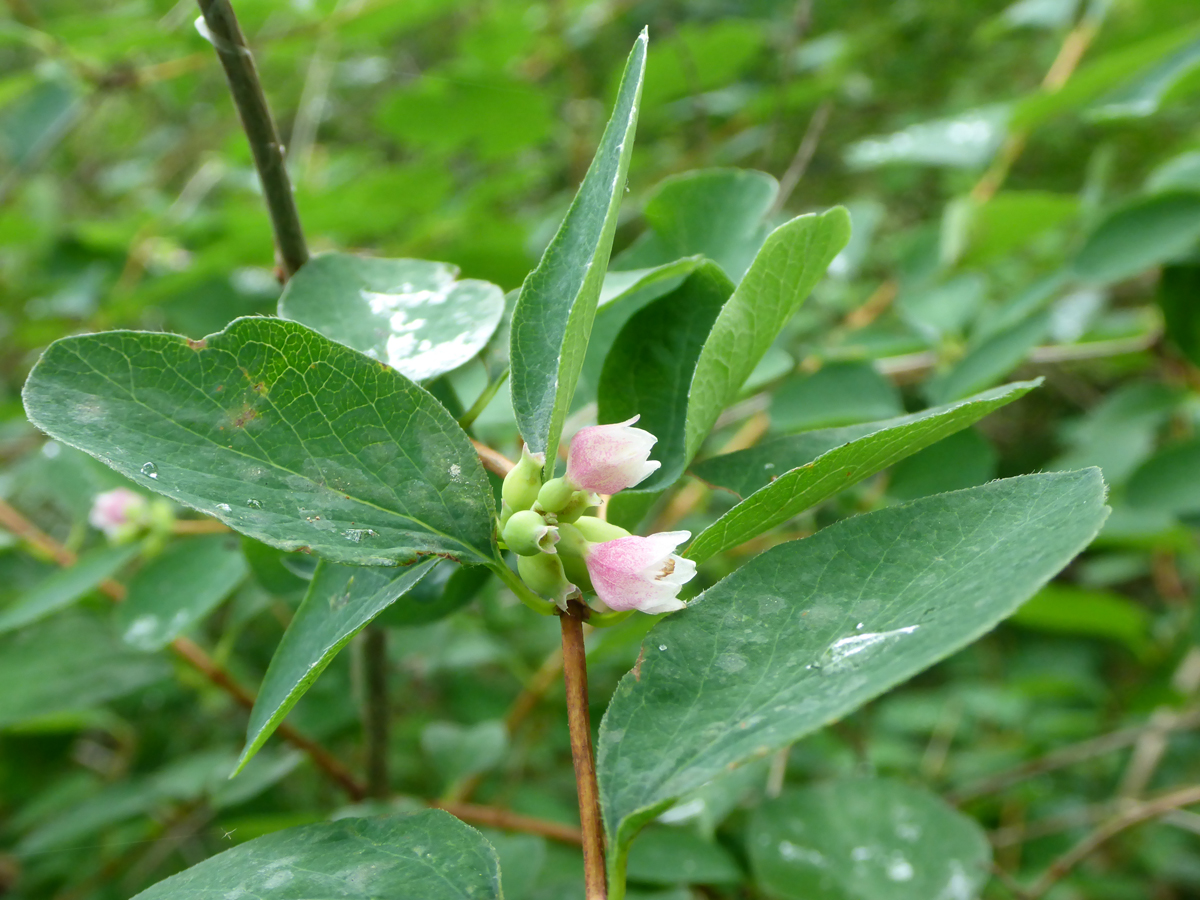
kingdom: Plantae
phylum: Tracheophyta
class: Magnoliopsida
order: Dipsacales
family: Caprifoliaceae
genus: Symphoricarpos
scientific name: Symphoricarpos albus
